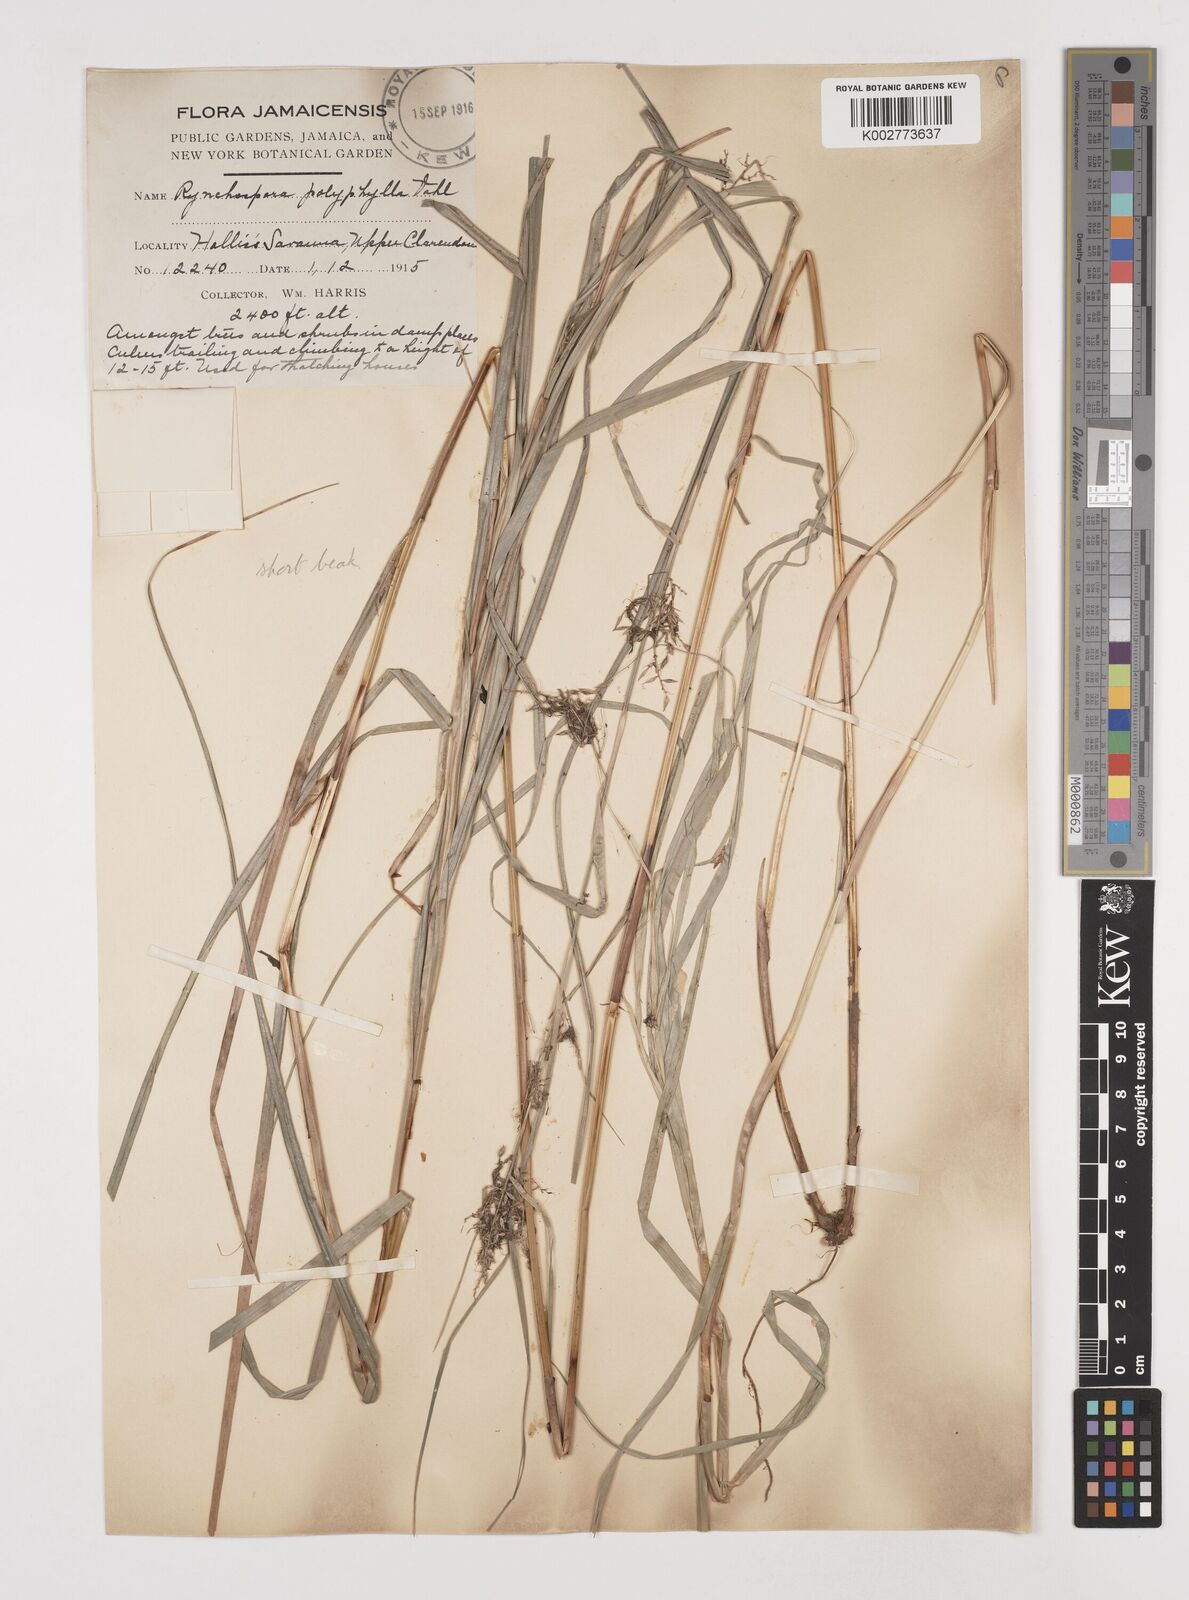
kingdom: Plantae
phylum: Tracheophyta
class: Liliopsida
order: Poales
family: Cyperaceae
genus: Rhynchospora
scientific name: Rhynchospora polyphylla
